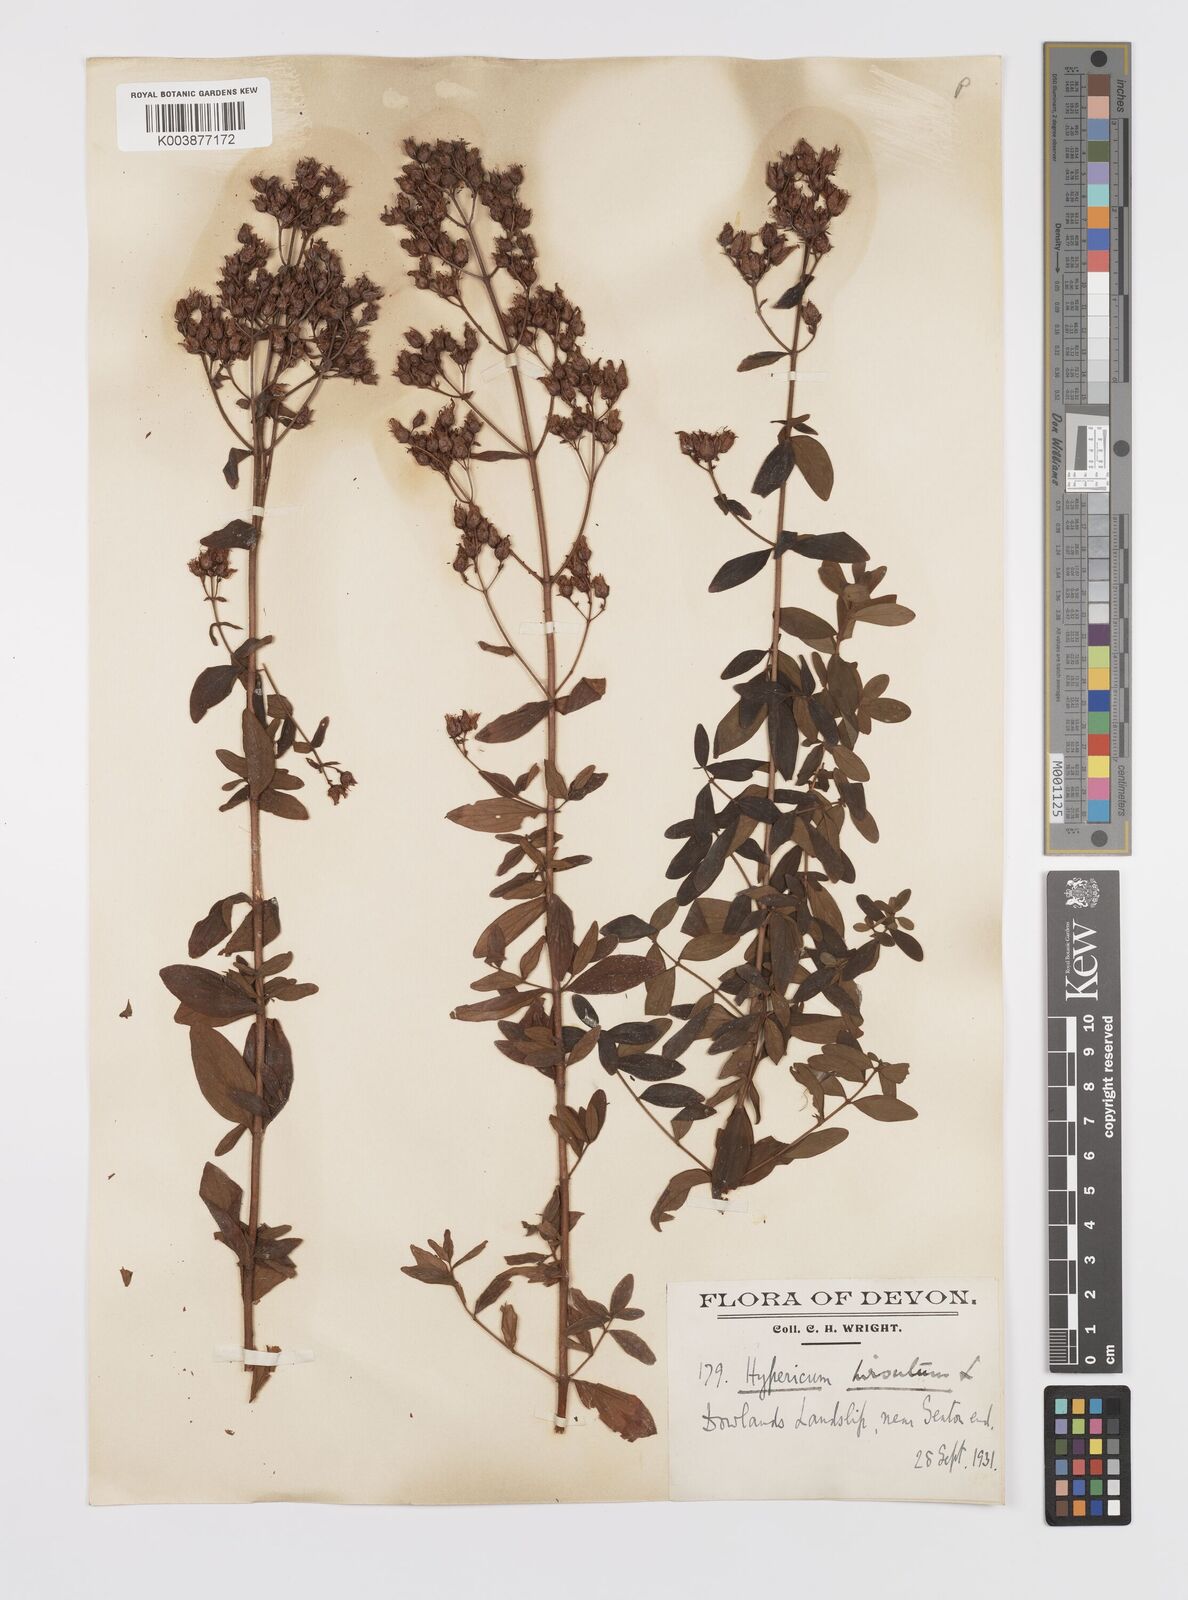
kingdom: Plantae
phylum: Tracheophyta
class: Magnoliopsida
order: Malpighiales
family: Hypericaceae
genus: Hypericum
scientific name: Hypericum hirsutum
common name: Hairy st. john's-wort
